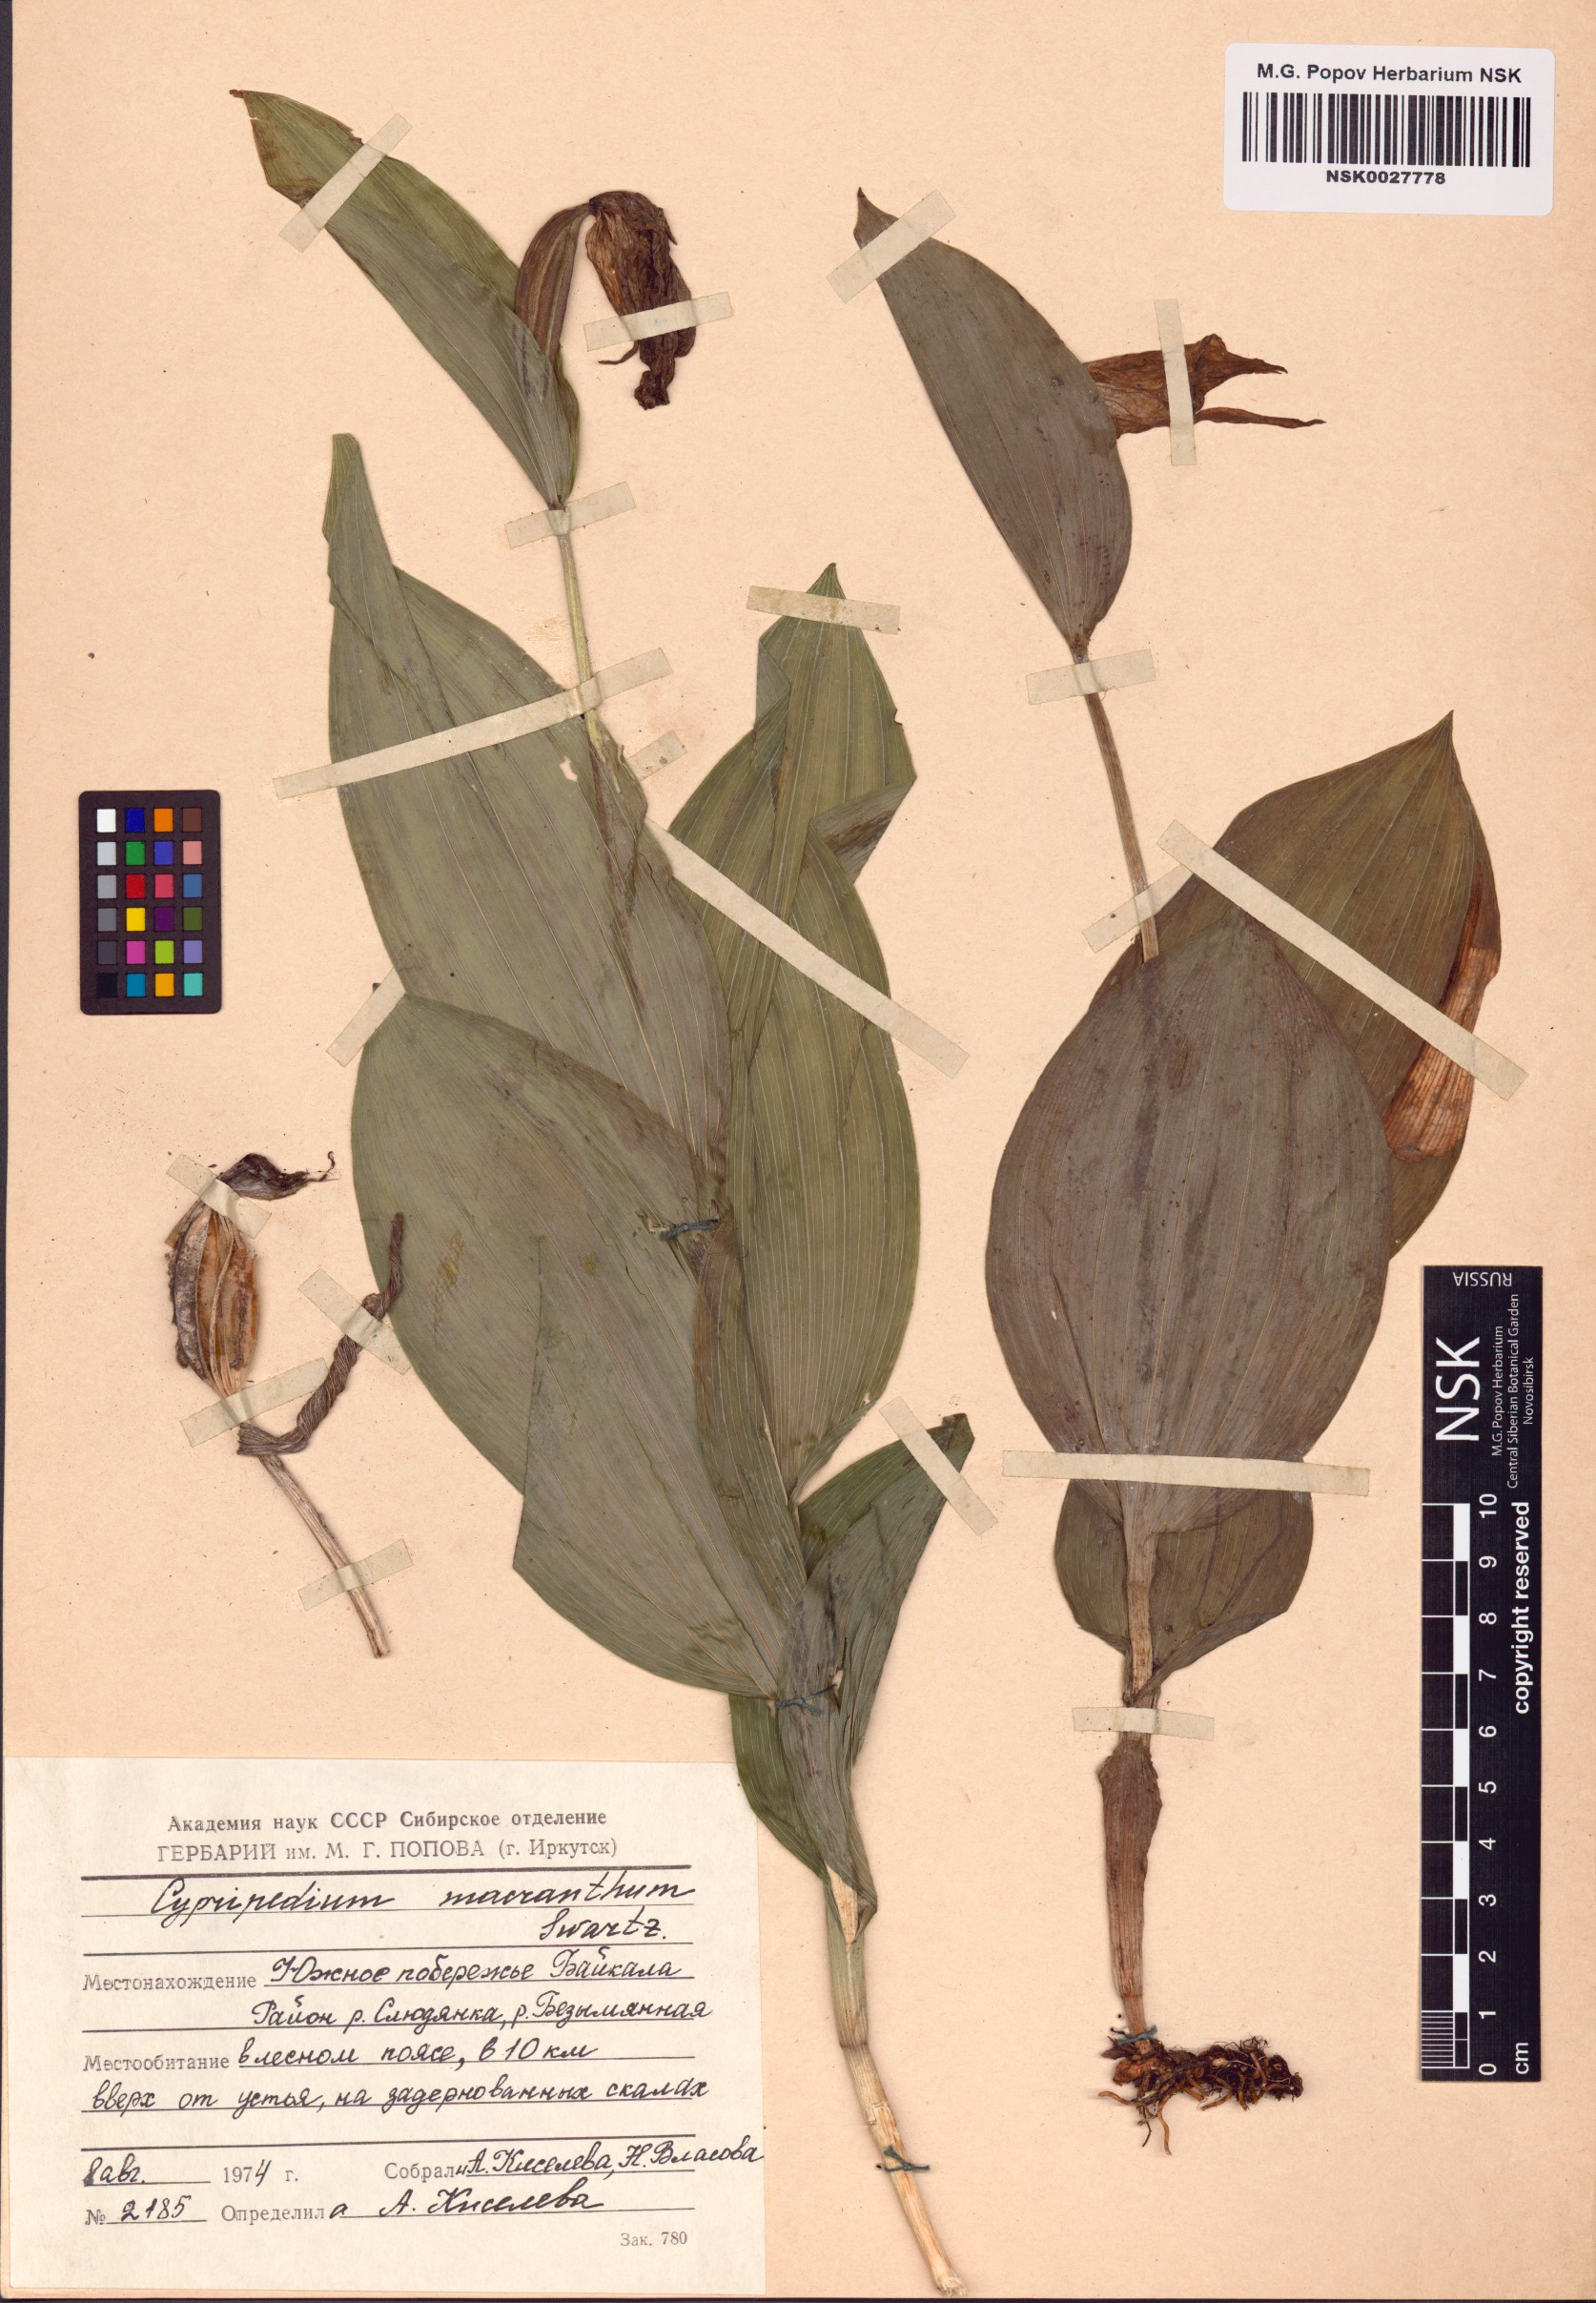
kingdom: Plantae
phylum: Tracheophyta
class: Liliopsida
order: Asparagales
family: Orchidaceae
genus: Cypripedium
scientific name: Cypripedium macranthos
